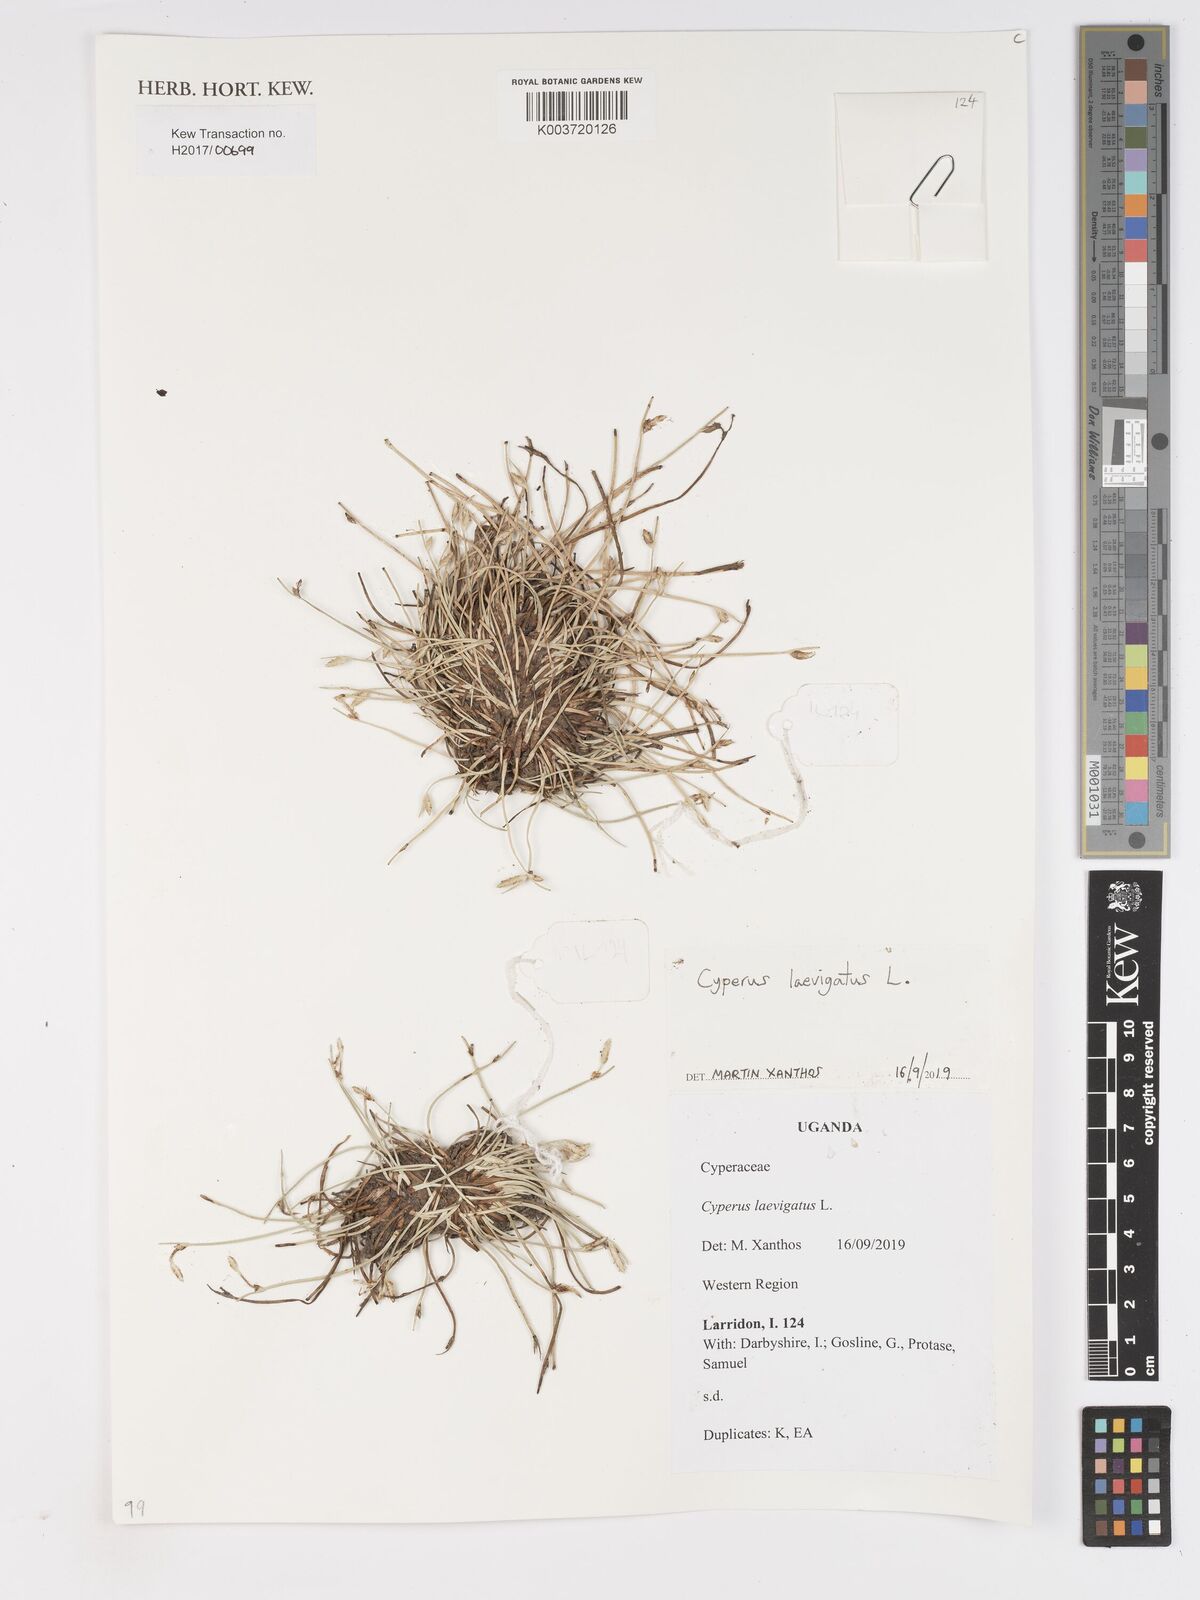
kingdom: Plantae
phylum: Tracheophyta
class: Liliopsida
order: Poales
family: Cyperaceae
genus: Cyperus
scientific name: Cyperus laevigatus
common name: Smooth flat sedge
